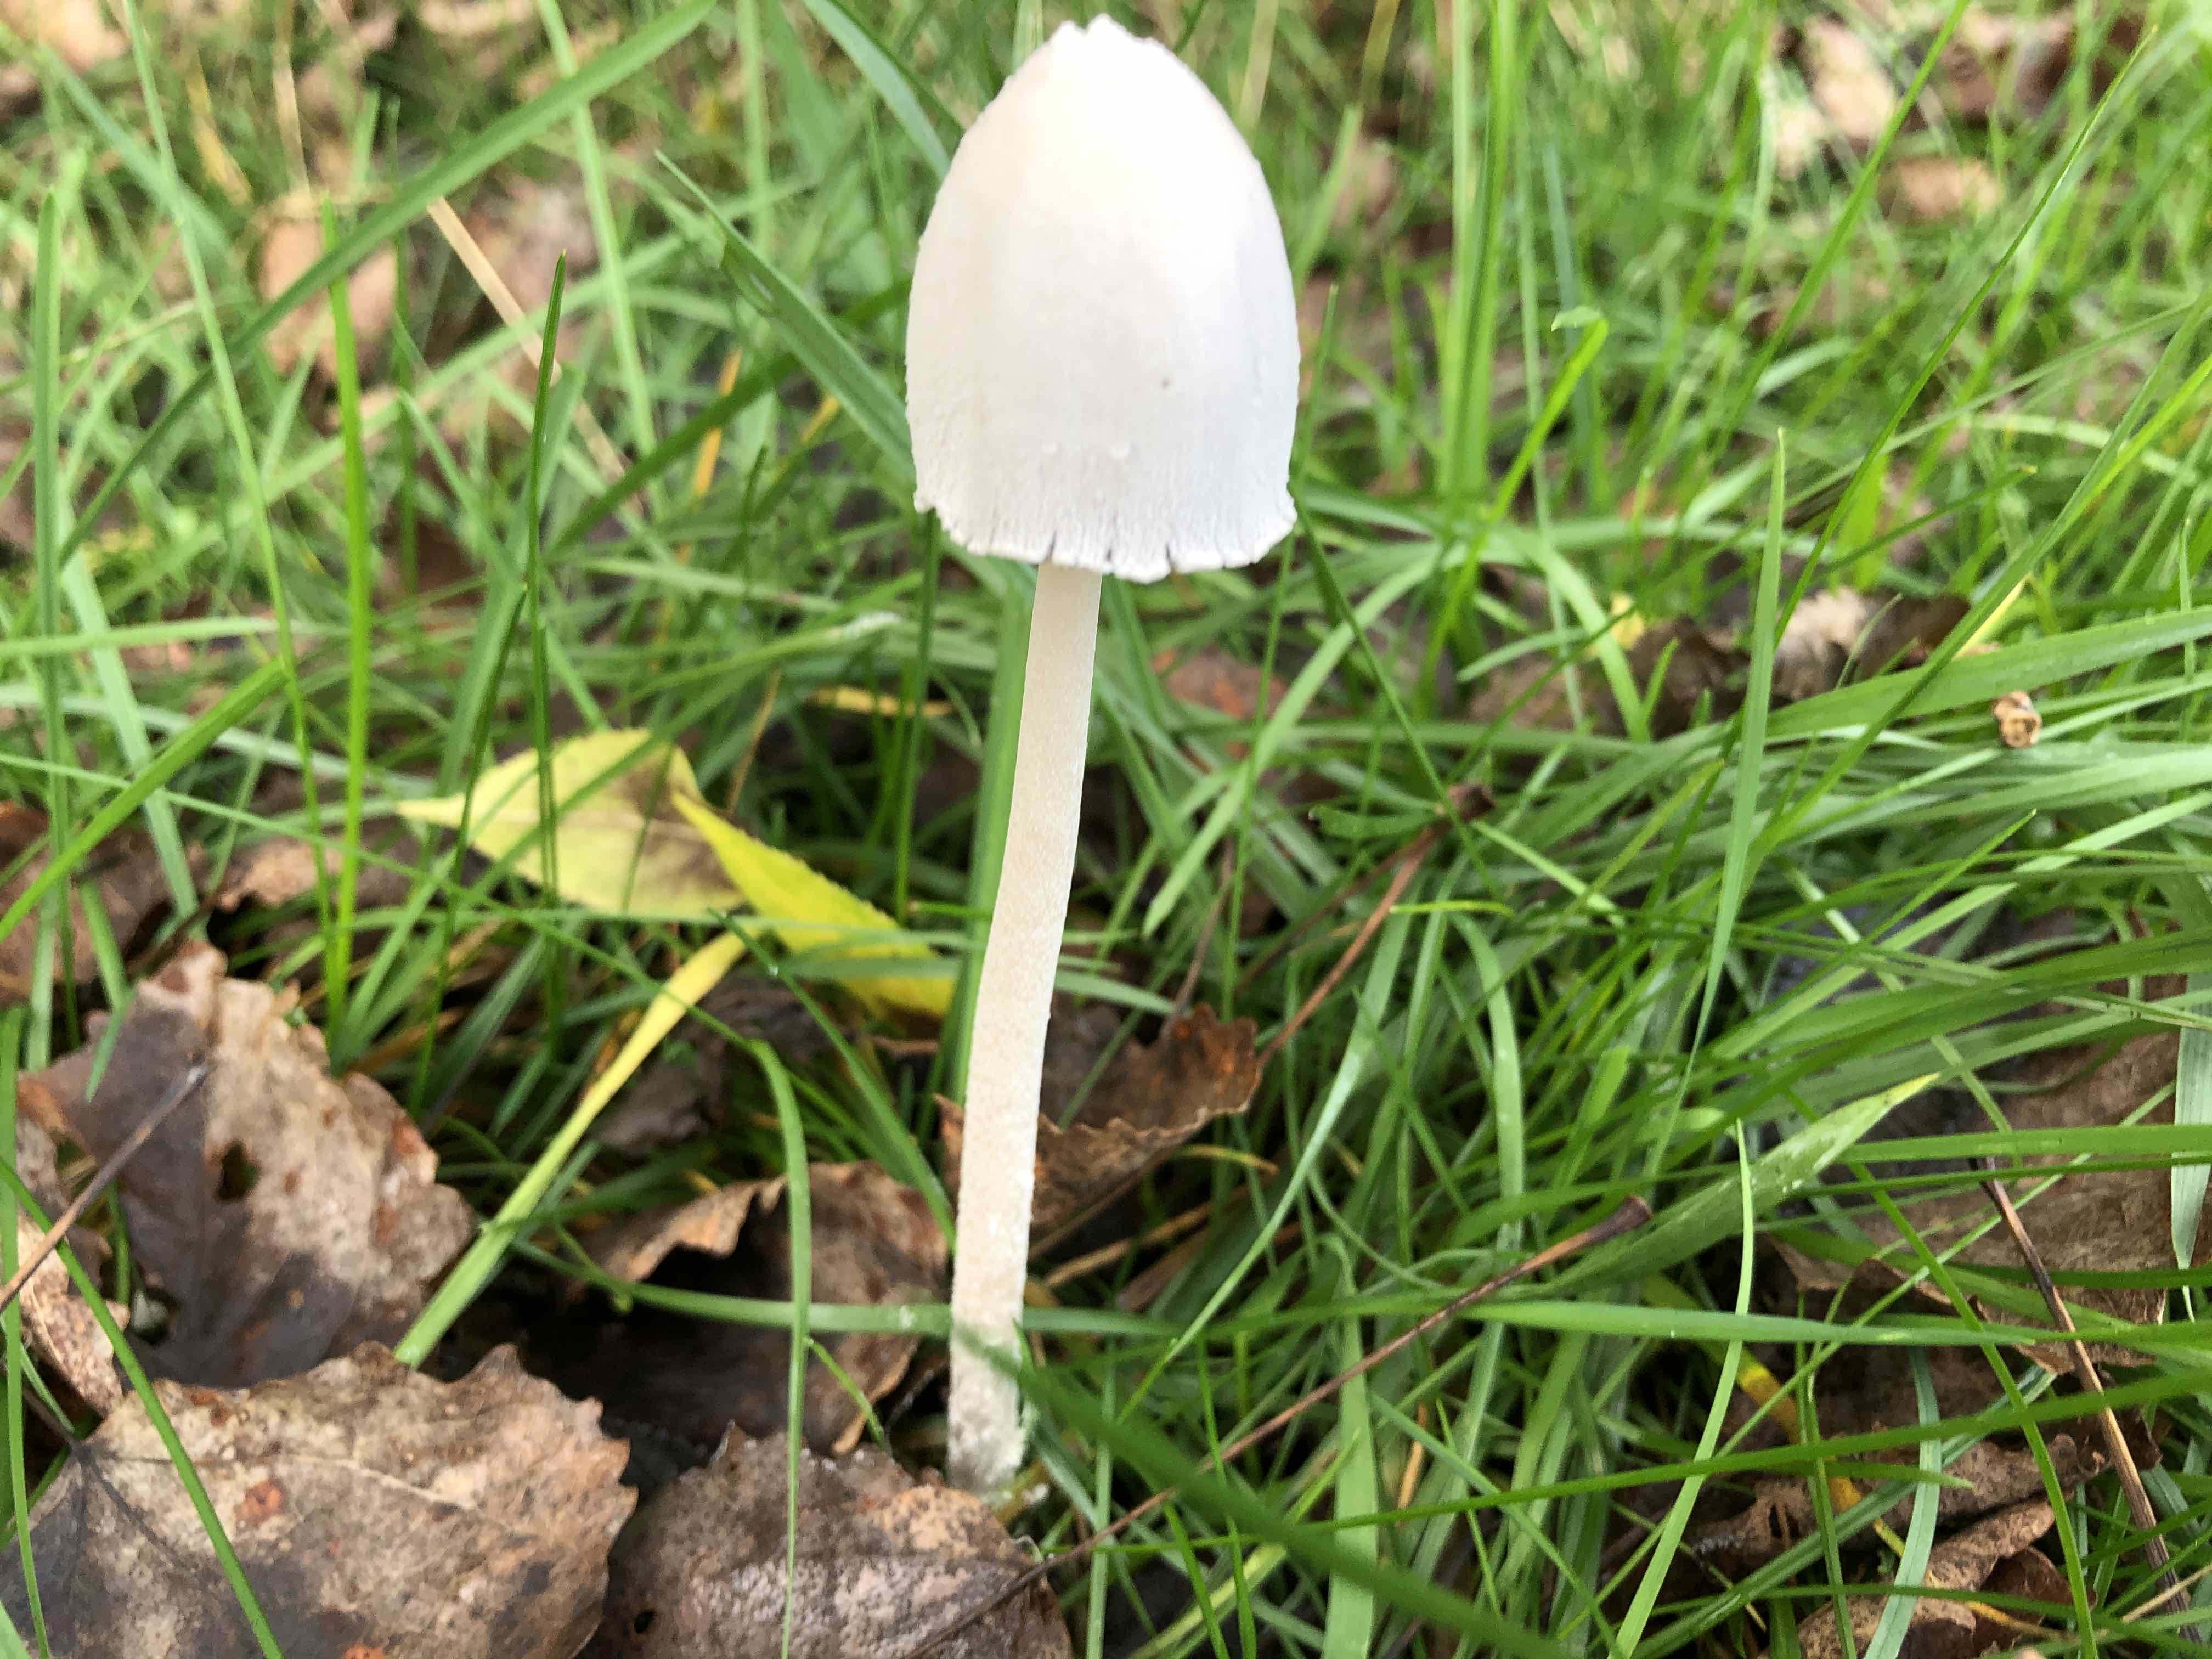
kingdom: Fungi
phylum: Basidiomycota
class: Agaricomycetes
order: Agaricales
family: Psathyrellaceae
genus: Coprinopsis
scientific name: Coprinopsis nivea
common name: snehvid blækhat
